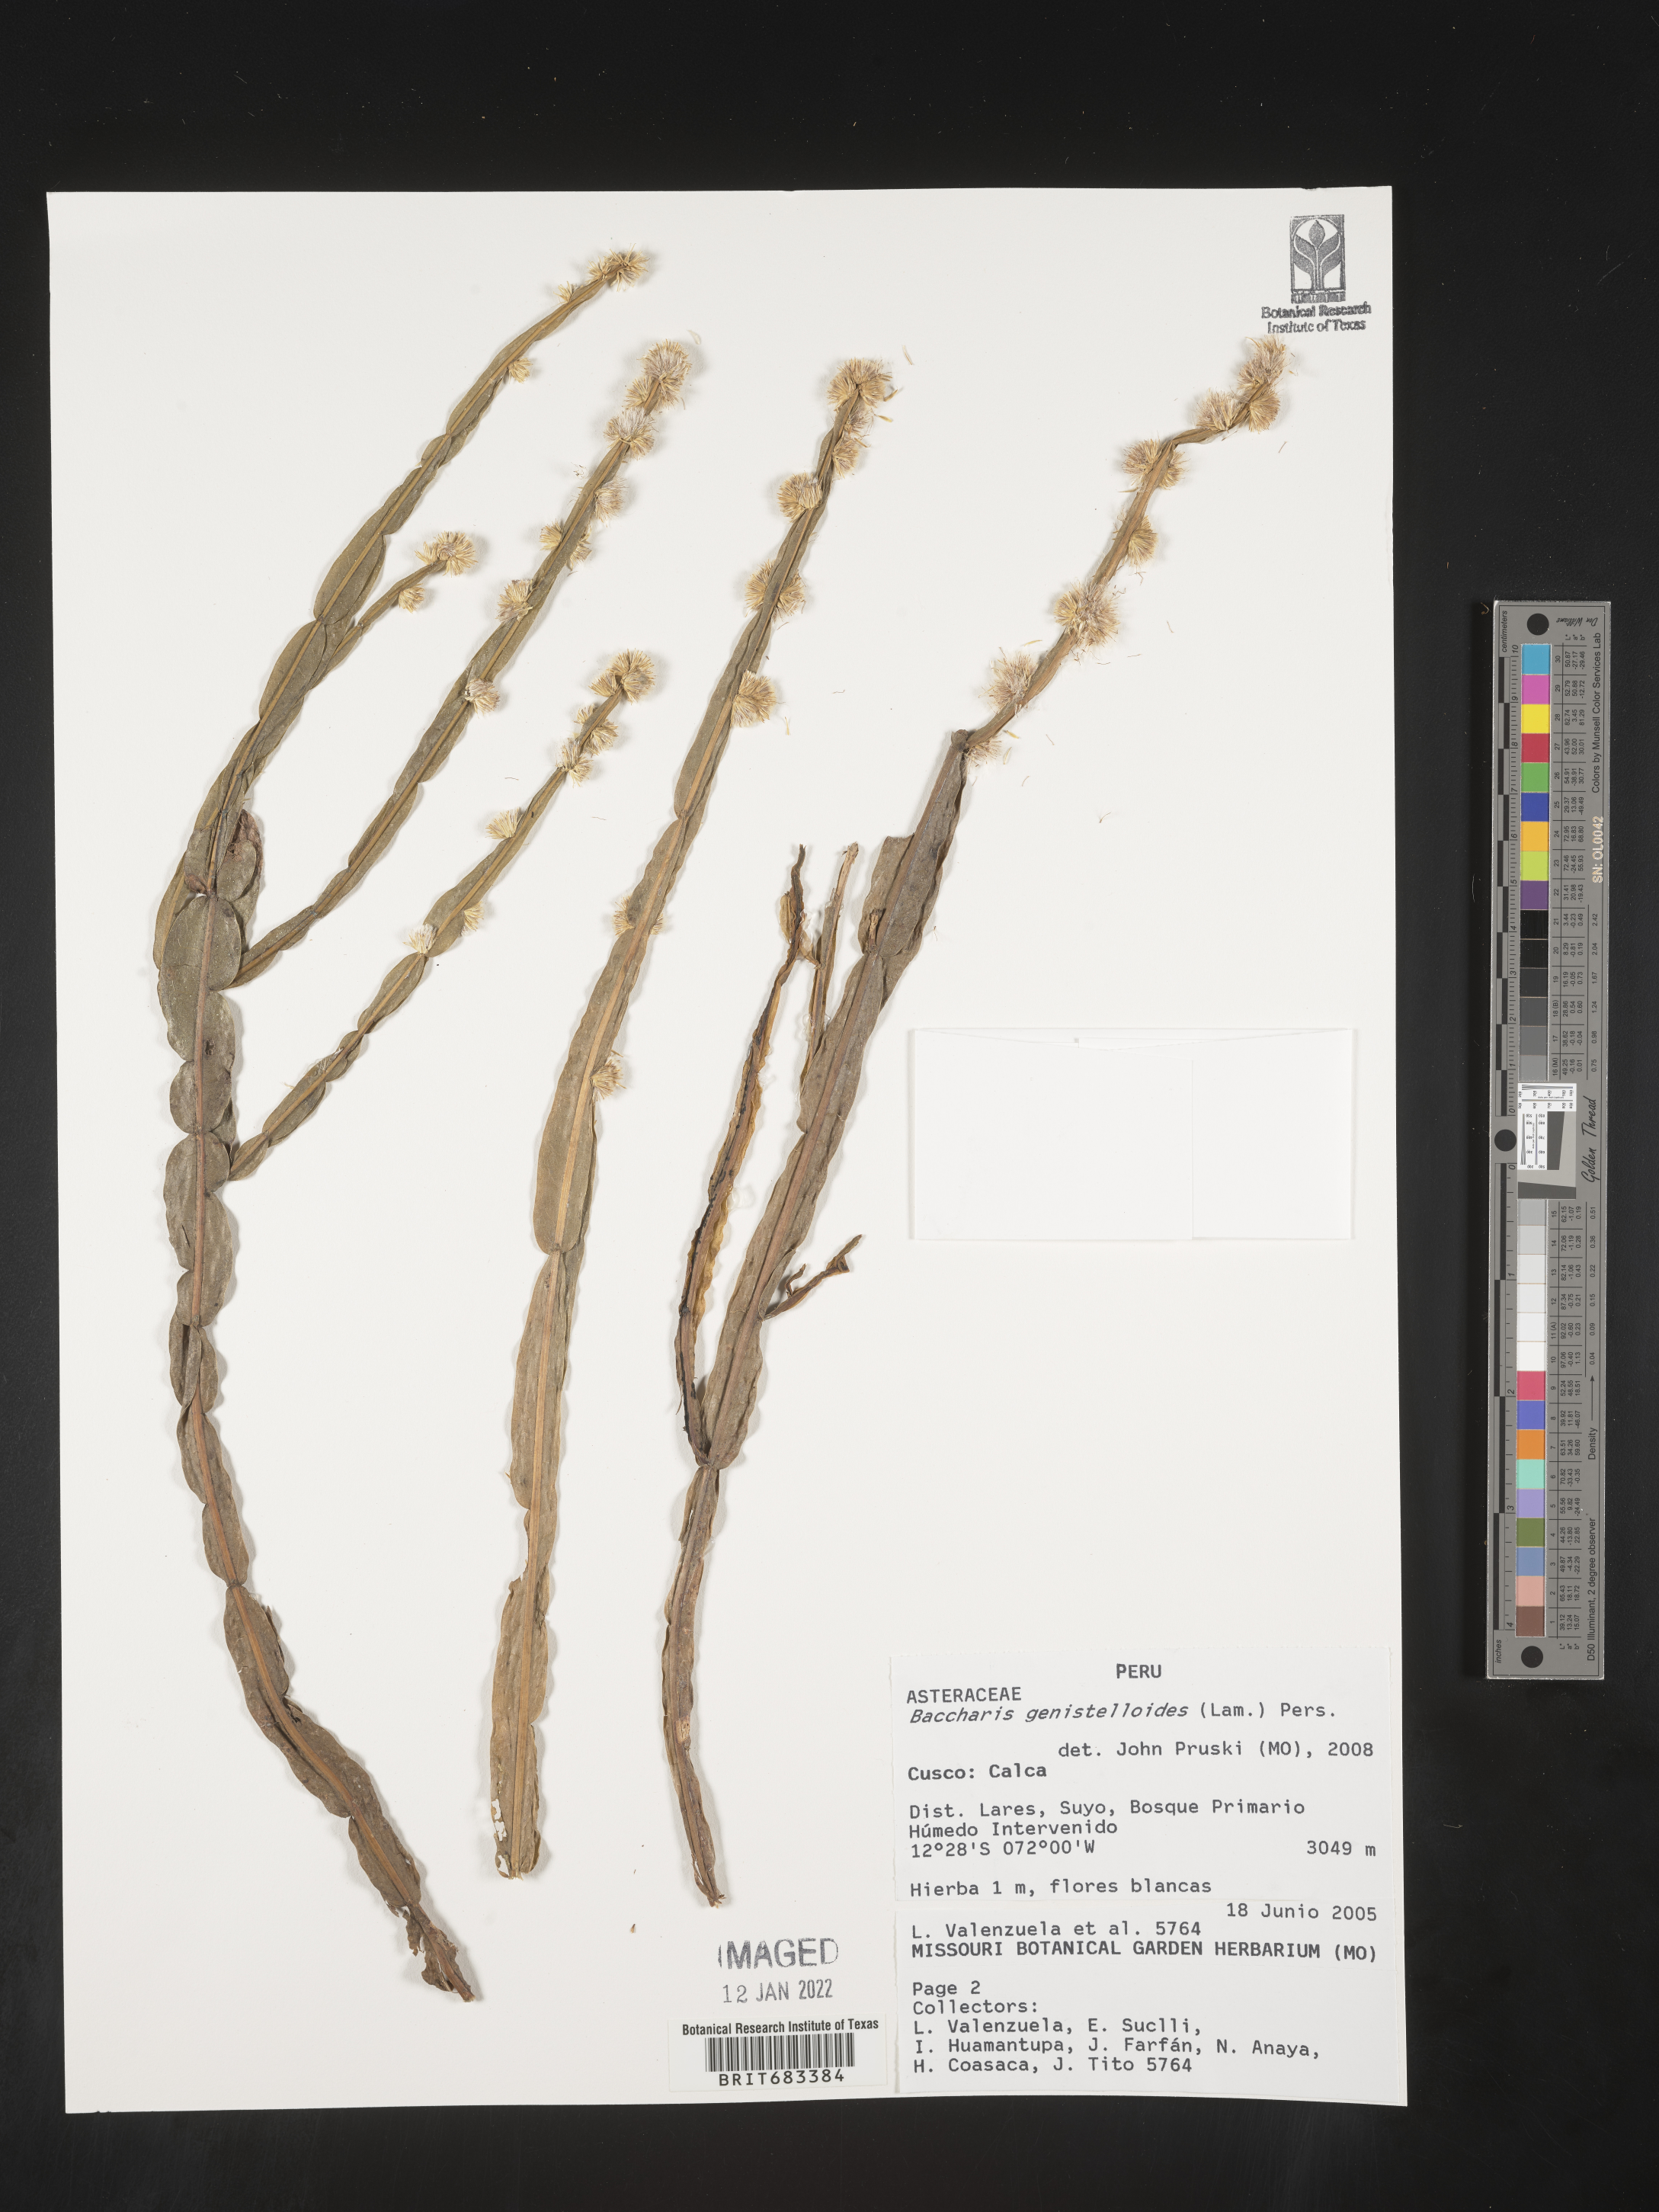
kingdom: Plantae
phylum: Tracheophyta
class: Magnoliopsida
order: Asterales
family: Asteraceae
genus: Baccharis
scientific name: Baccharis
